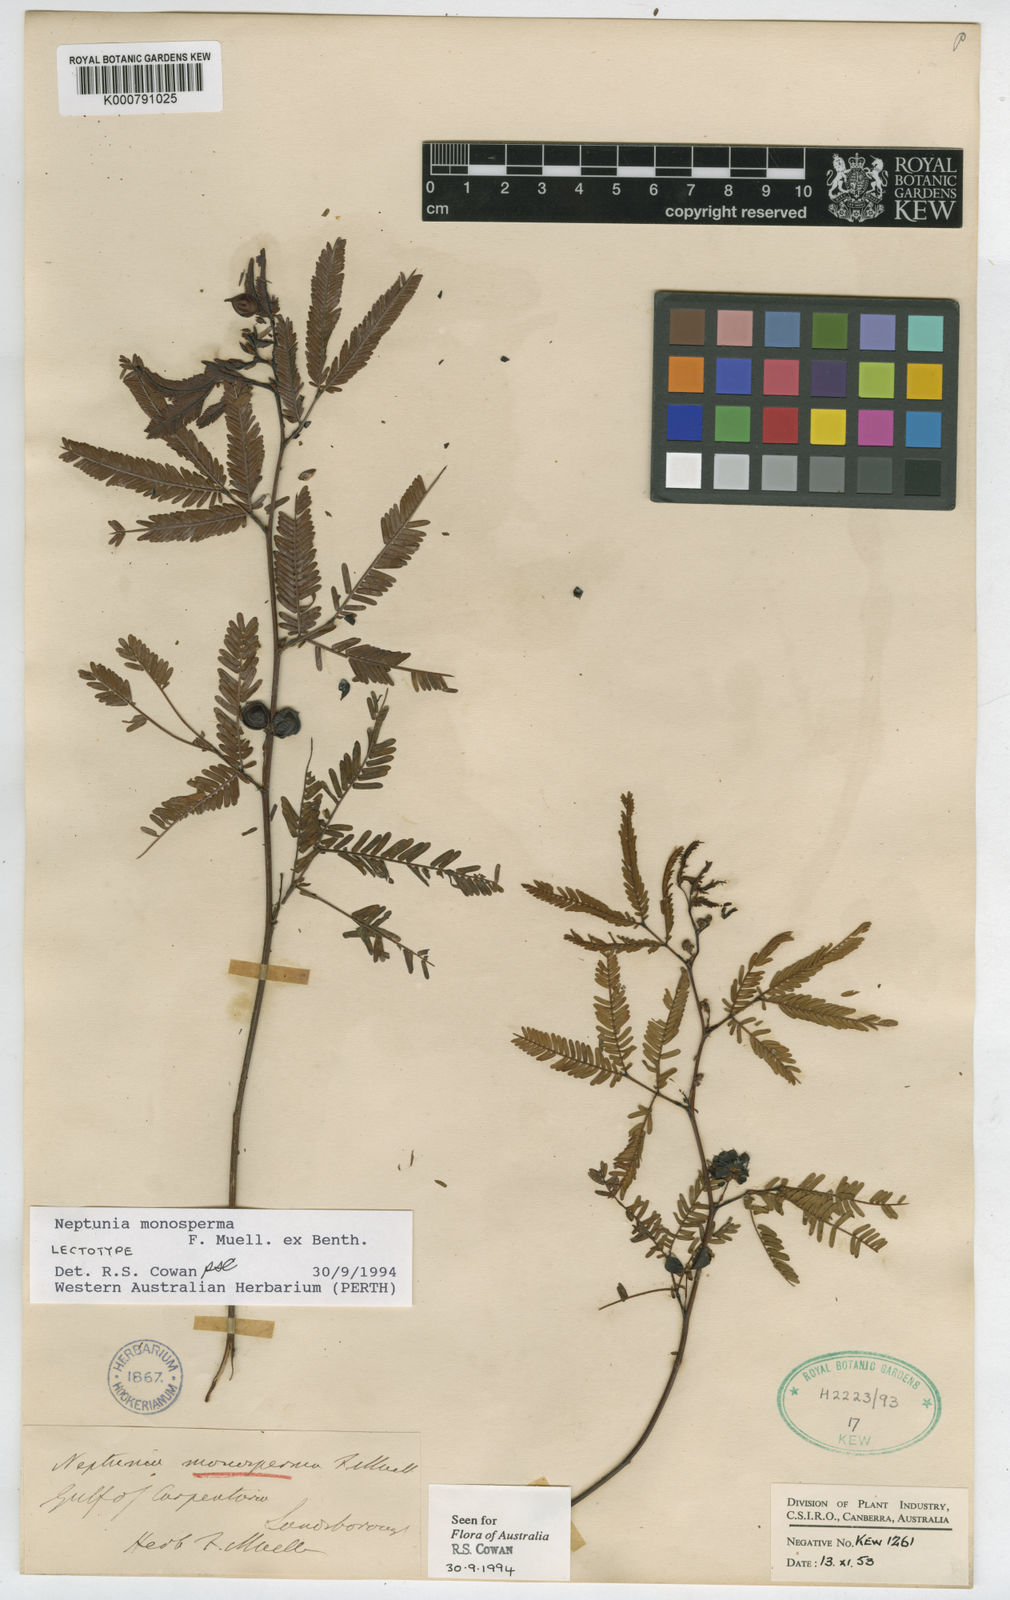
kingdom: Plantae
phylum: Tracheophyta
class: Magnoliopsida
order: Fabales
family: Fabaceae
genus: Neptunia
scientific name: Neptunia monosperma
